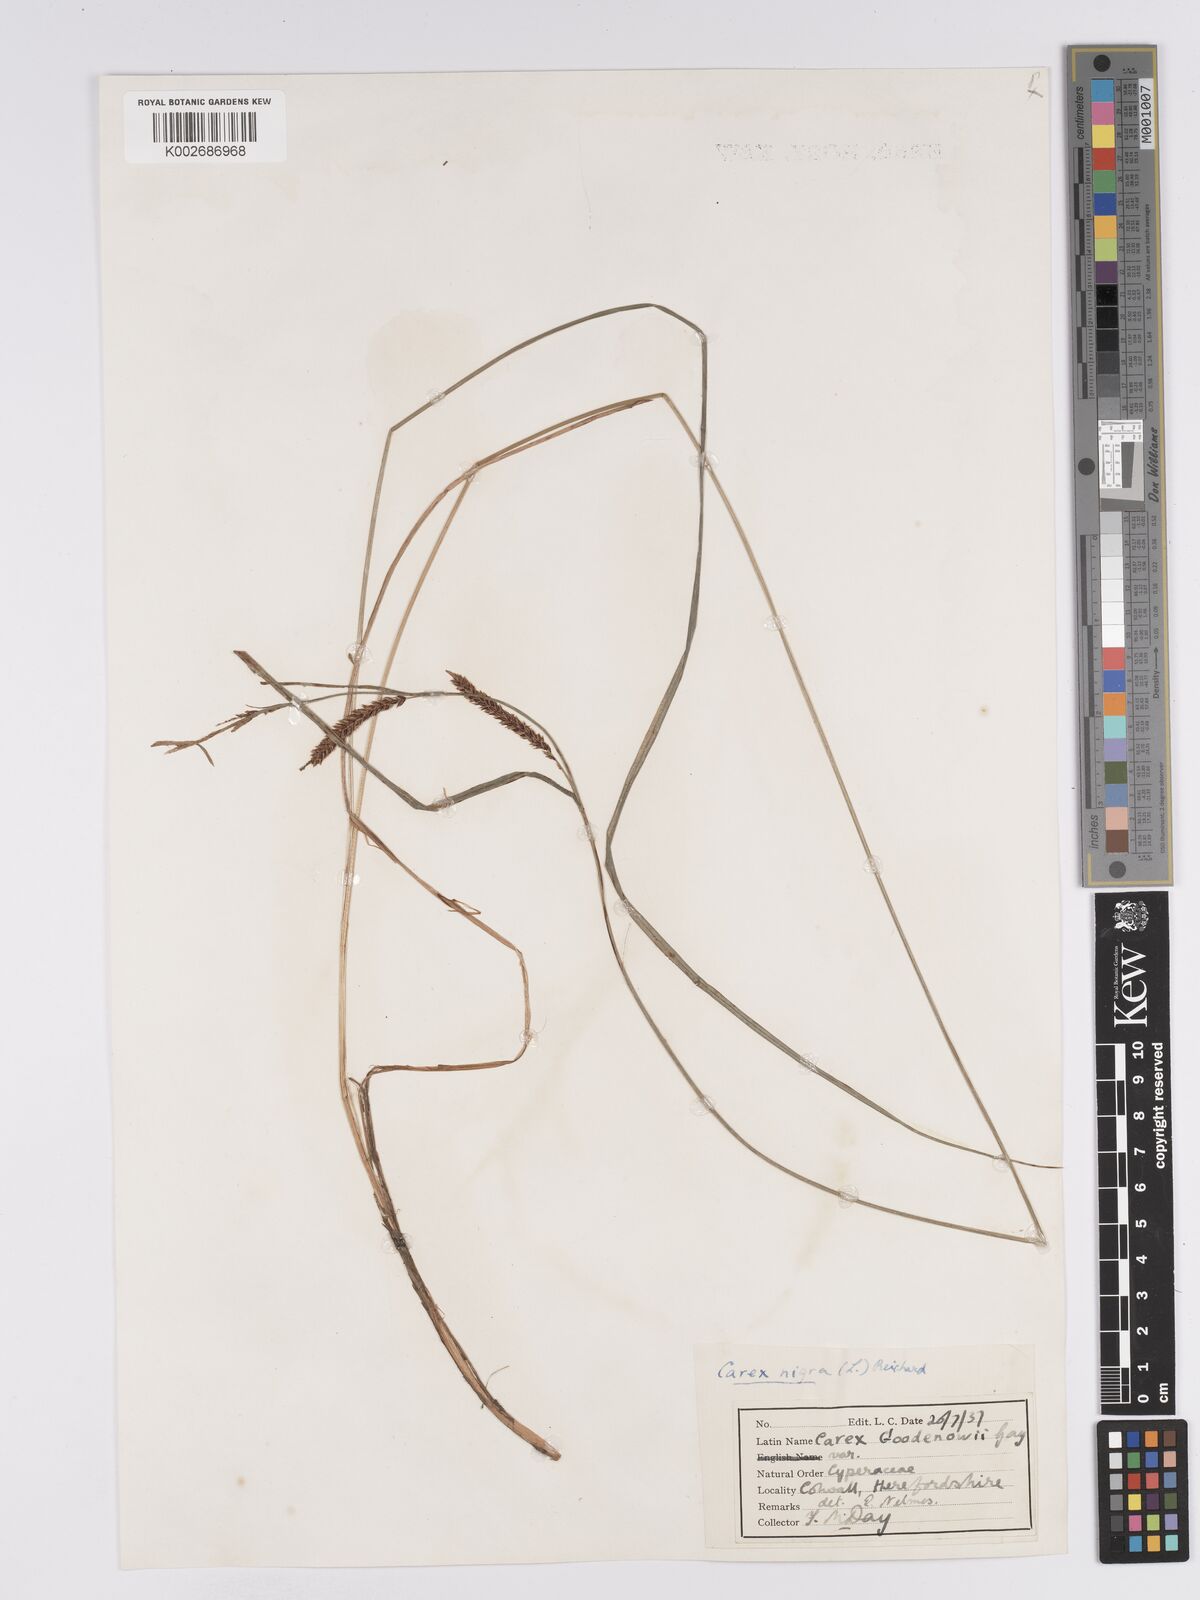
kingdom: Plantae
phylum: Tracheophyta
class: Liliopsida
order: Poales
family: Cyperaceae
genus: Carex
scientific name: Carex nigra
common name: Common sedge
